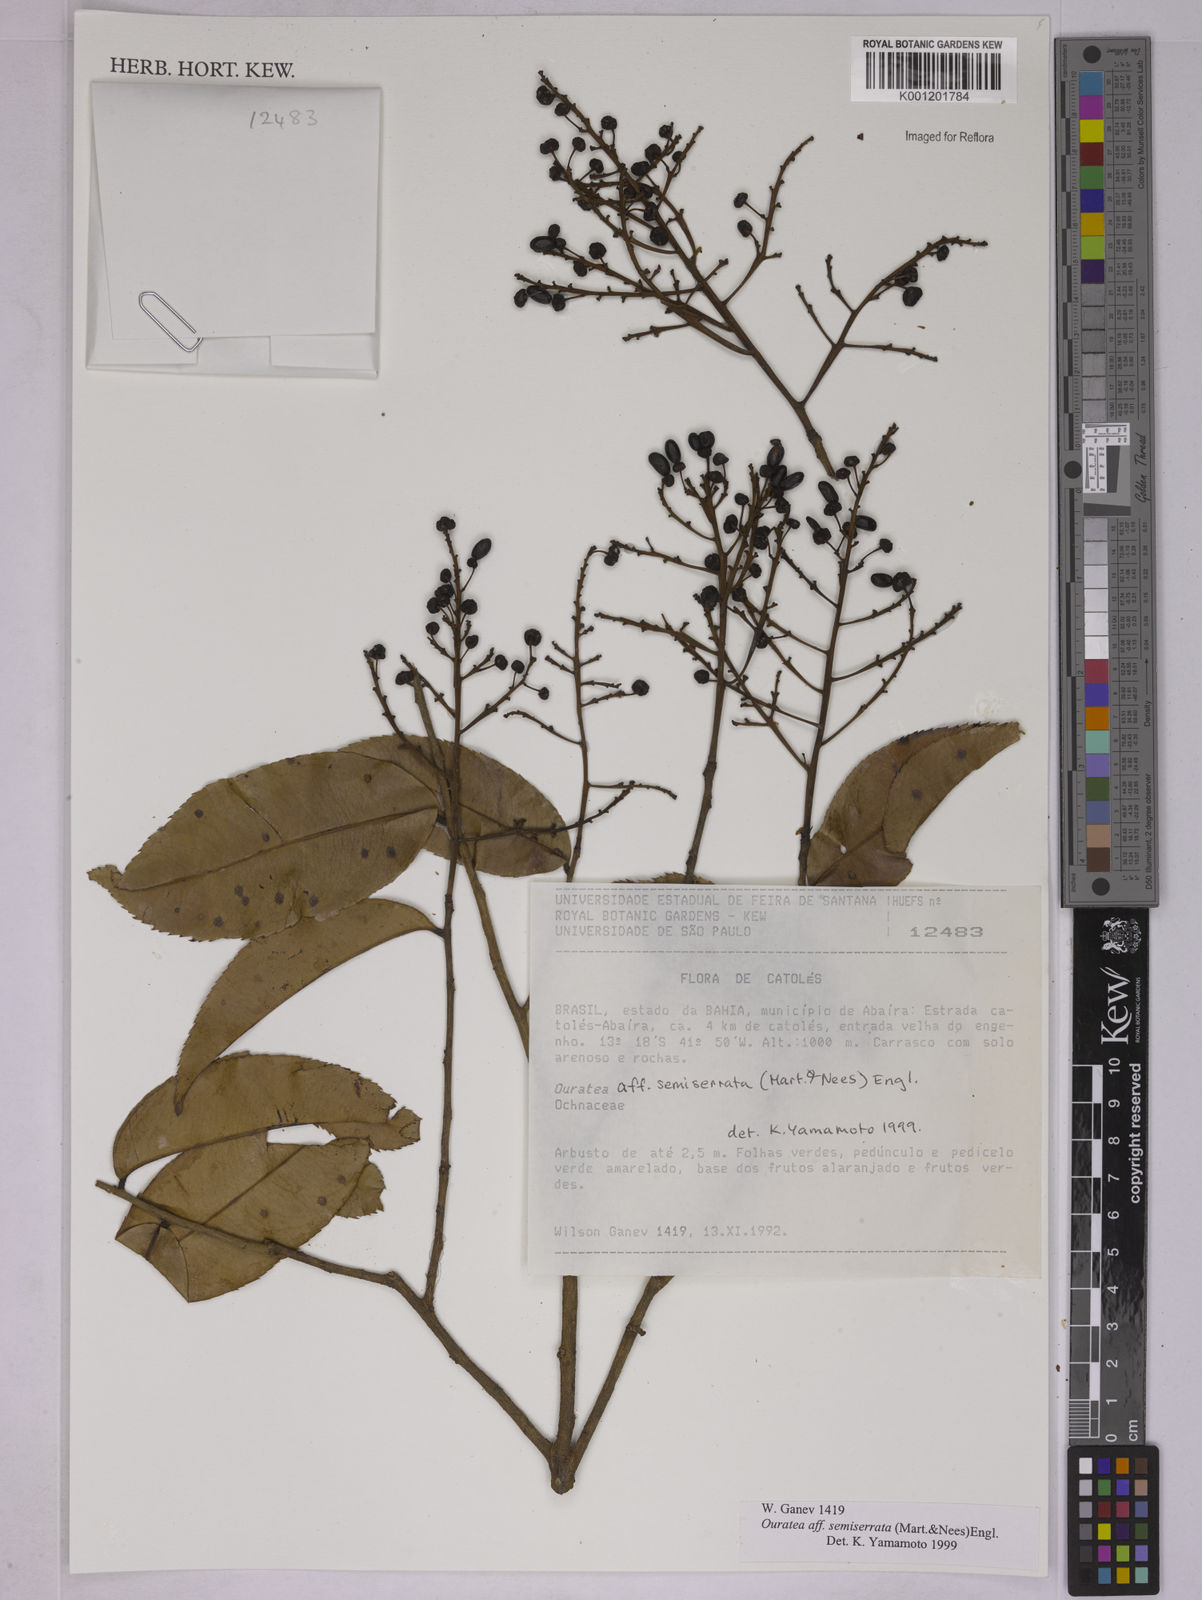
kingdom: Plantae
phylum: Tracheophyta
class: Magnoliopsida
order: Malpighiales
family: Ochnaceae
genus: Ouratea
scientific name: Ouratea semiserrata
